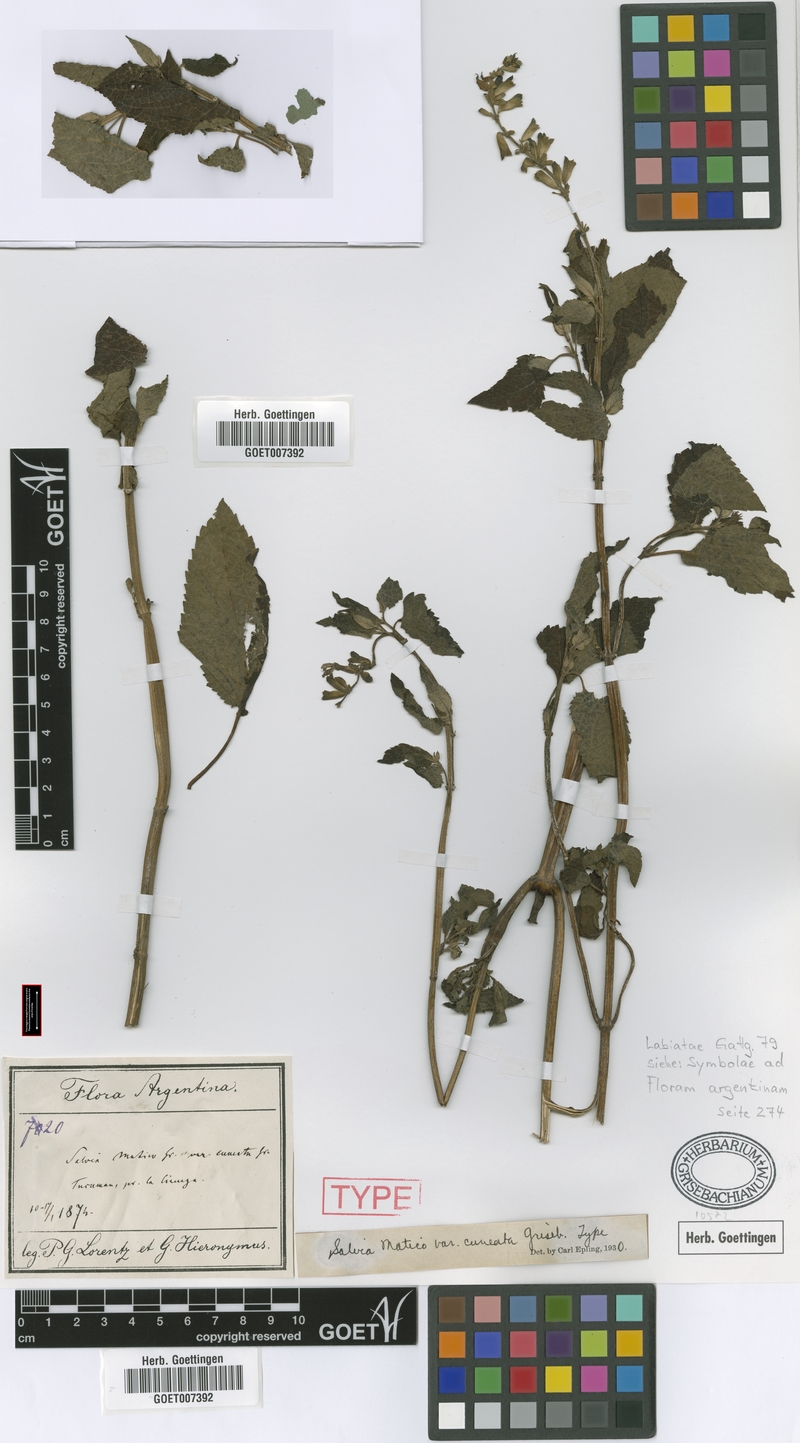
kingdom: Plantae
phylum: Tracheophyta
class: Magnoliopsida
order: Lamiales
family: Lamiaceae
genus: Salvia
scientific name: Salvia stachydifolia
